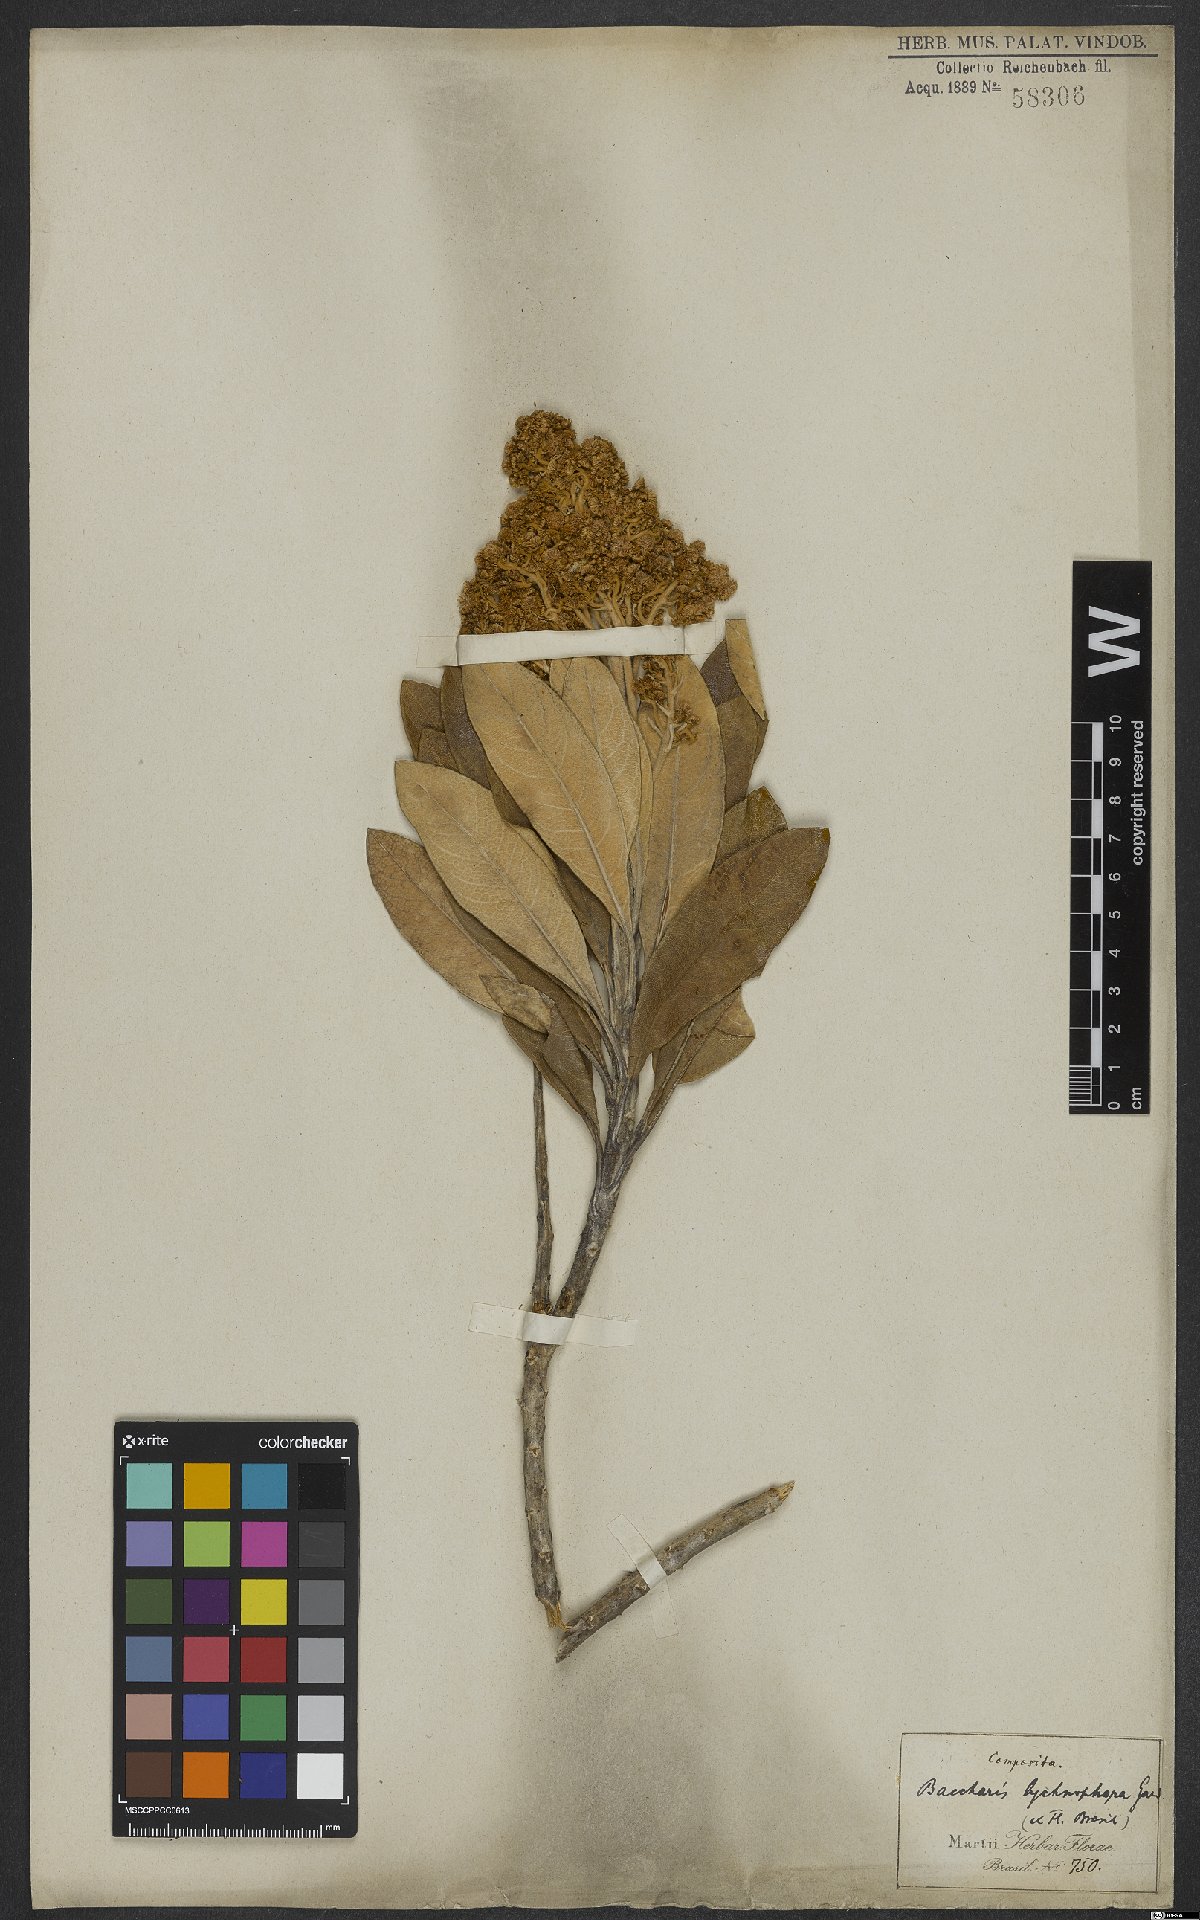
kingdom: Plantae
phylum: Tracheophyta
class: Magnoliopsida
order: Asterales
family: Asteraceae
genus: Baccharis
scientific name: Baccharis lychnophora
